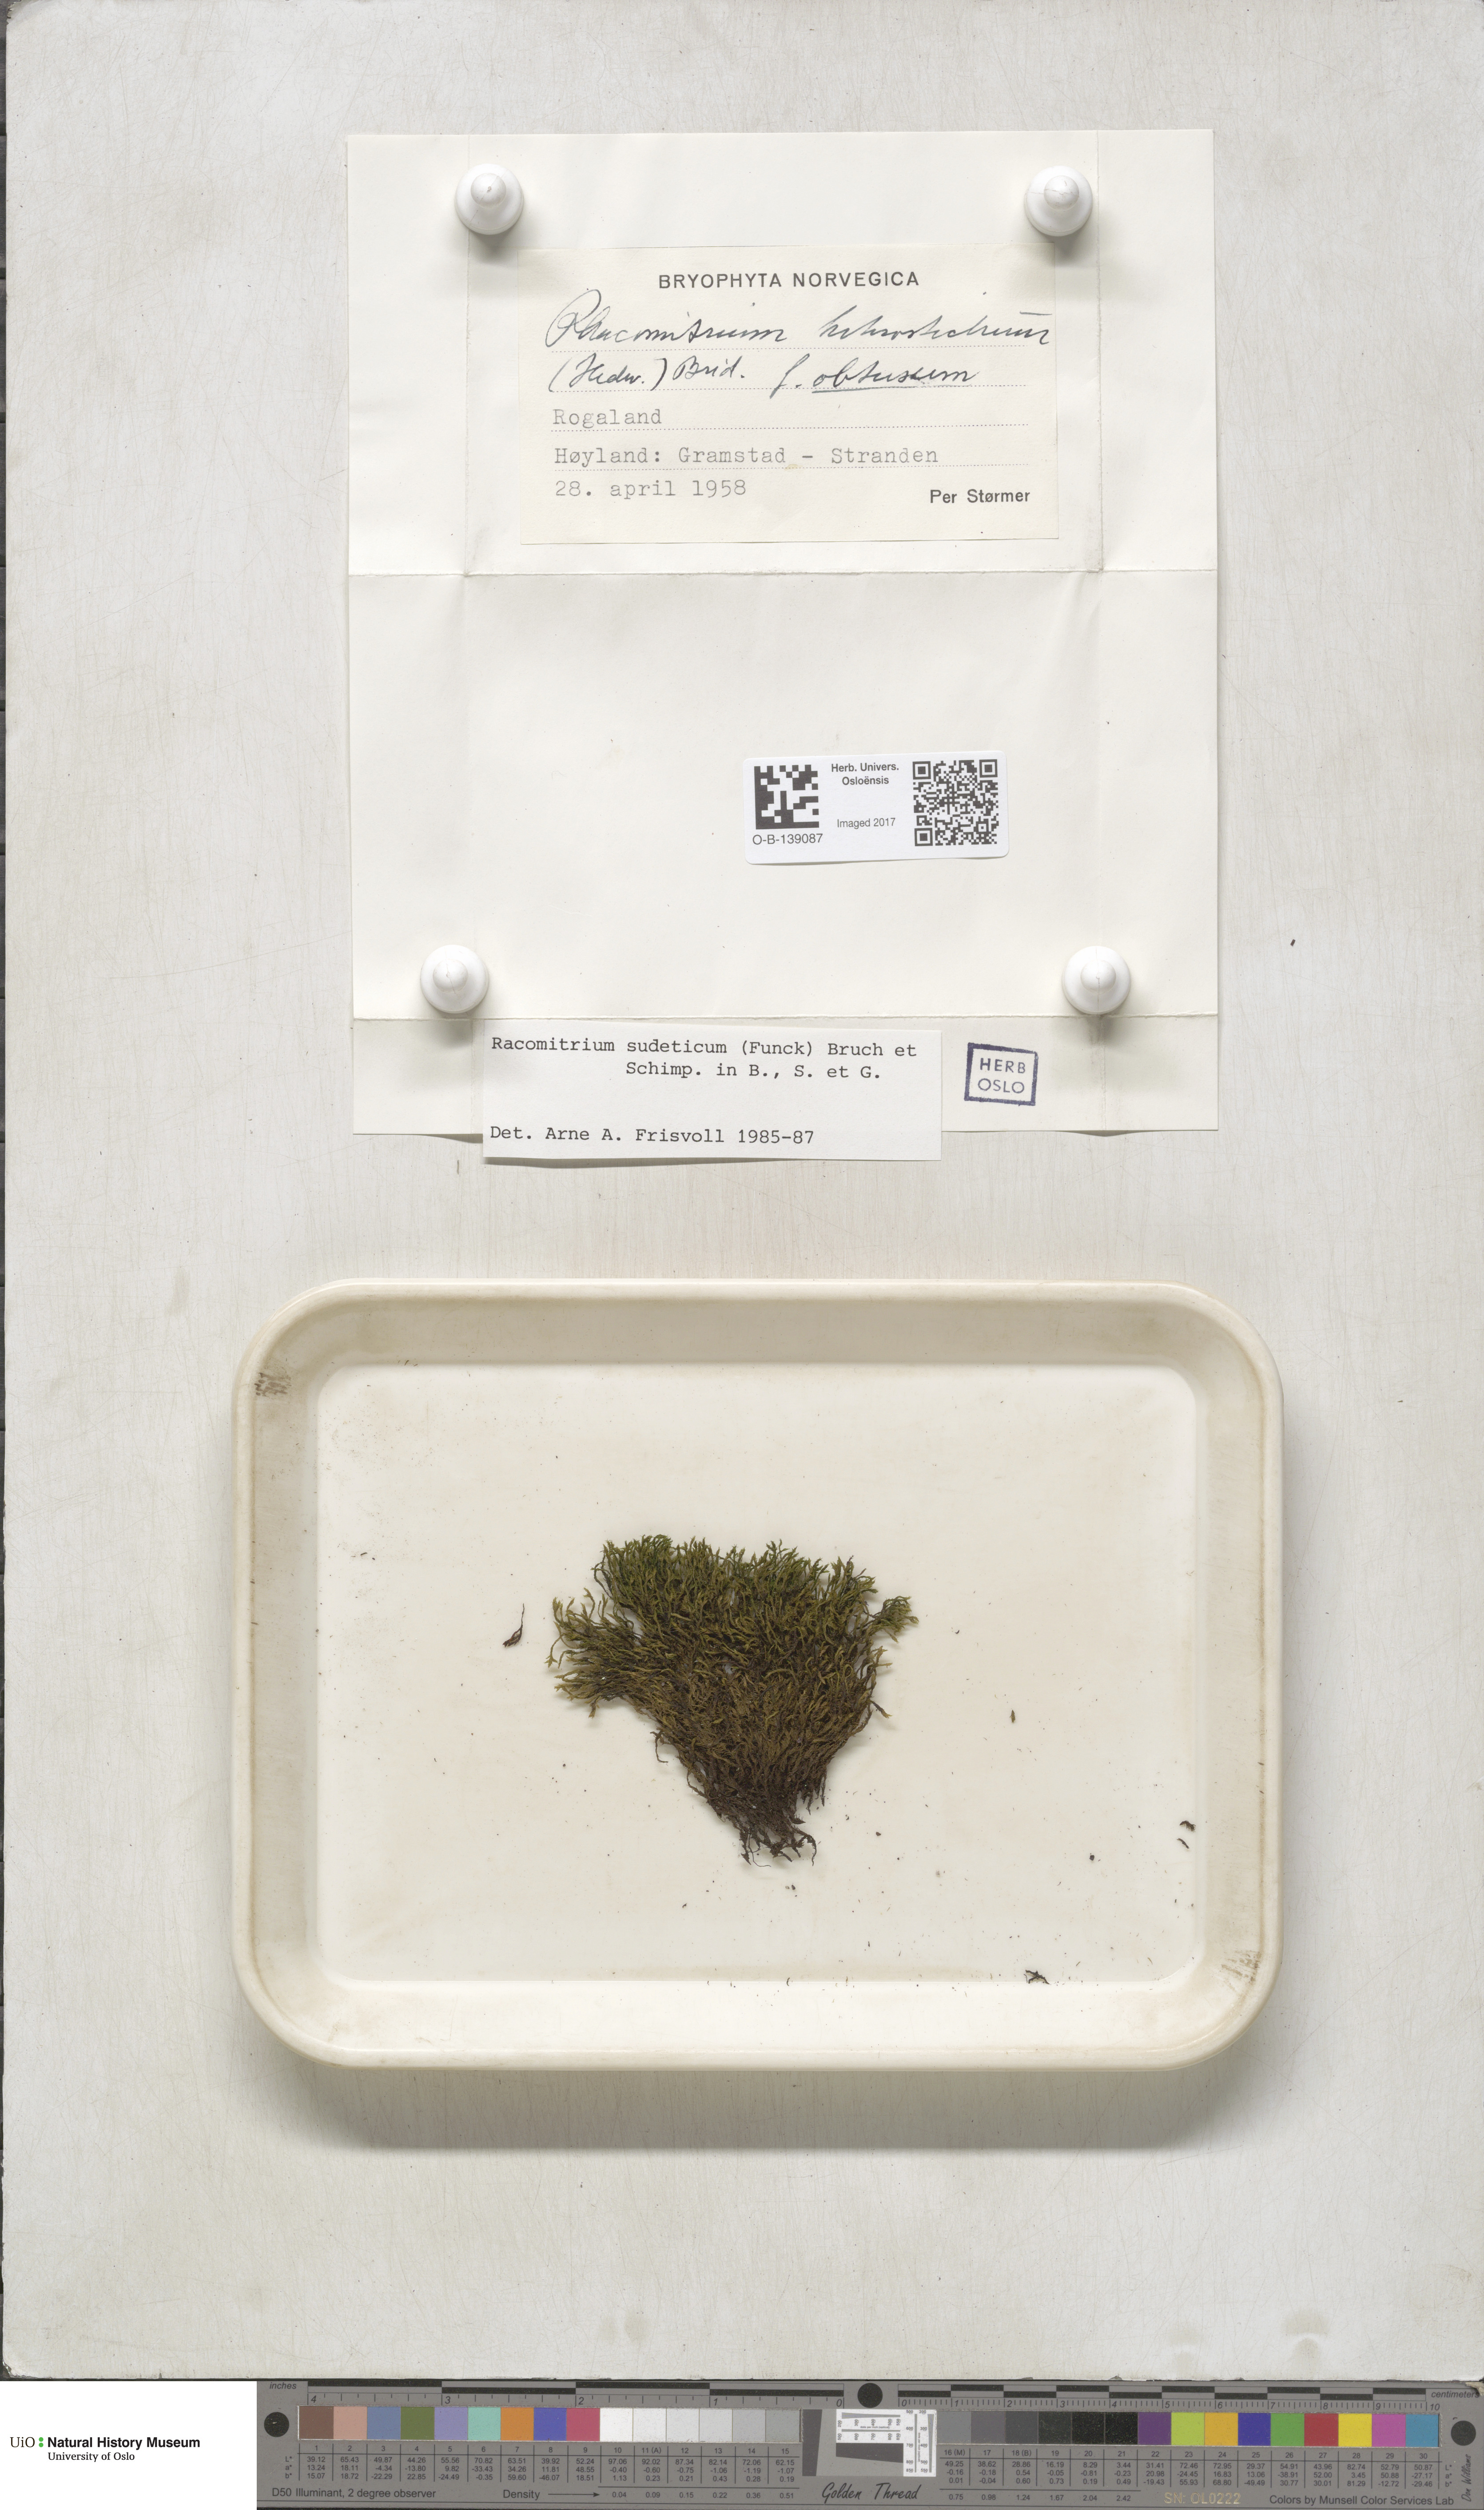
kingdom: Plantae
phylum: Bryophyta
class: Bryopsida
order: Grimmiales
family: Grimmiaceae
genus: Bucklandiella
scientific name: Bucklandiella sudetica
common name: Slender fringe-moss
